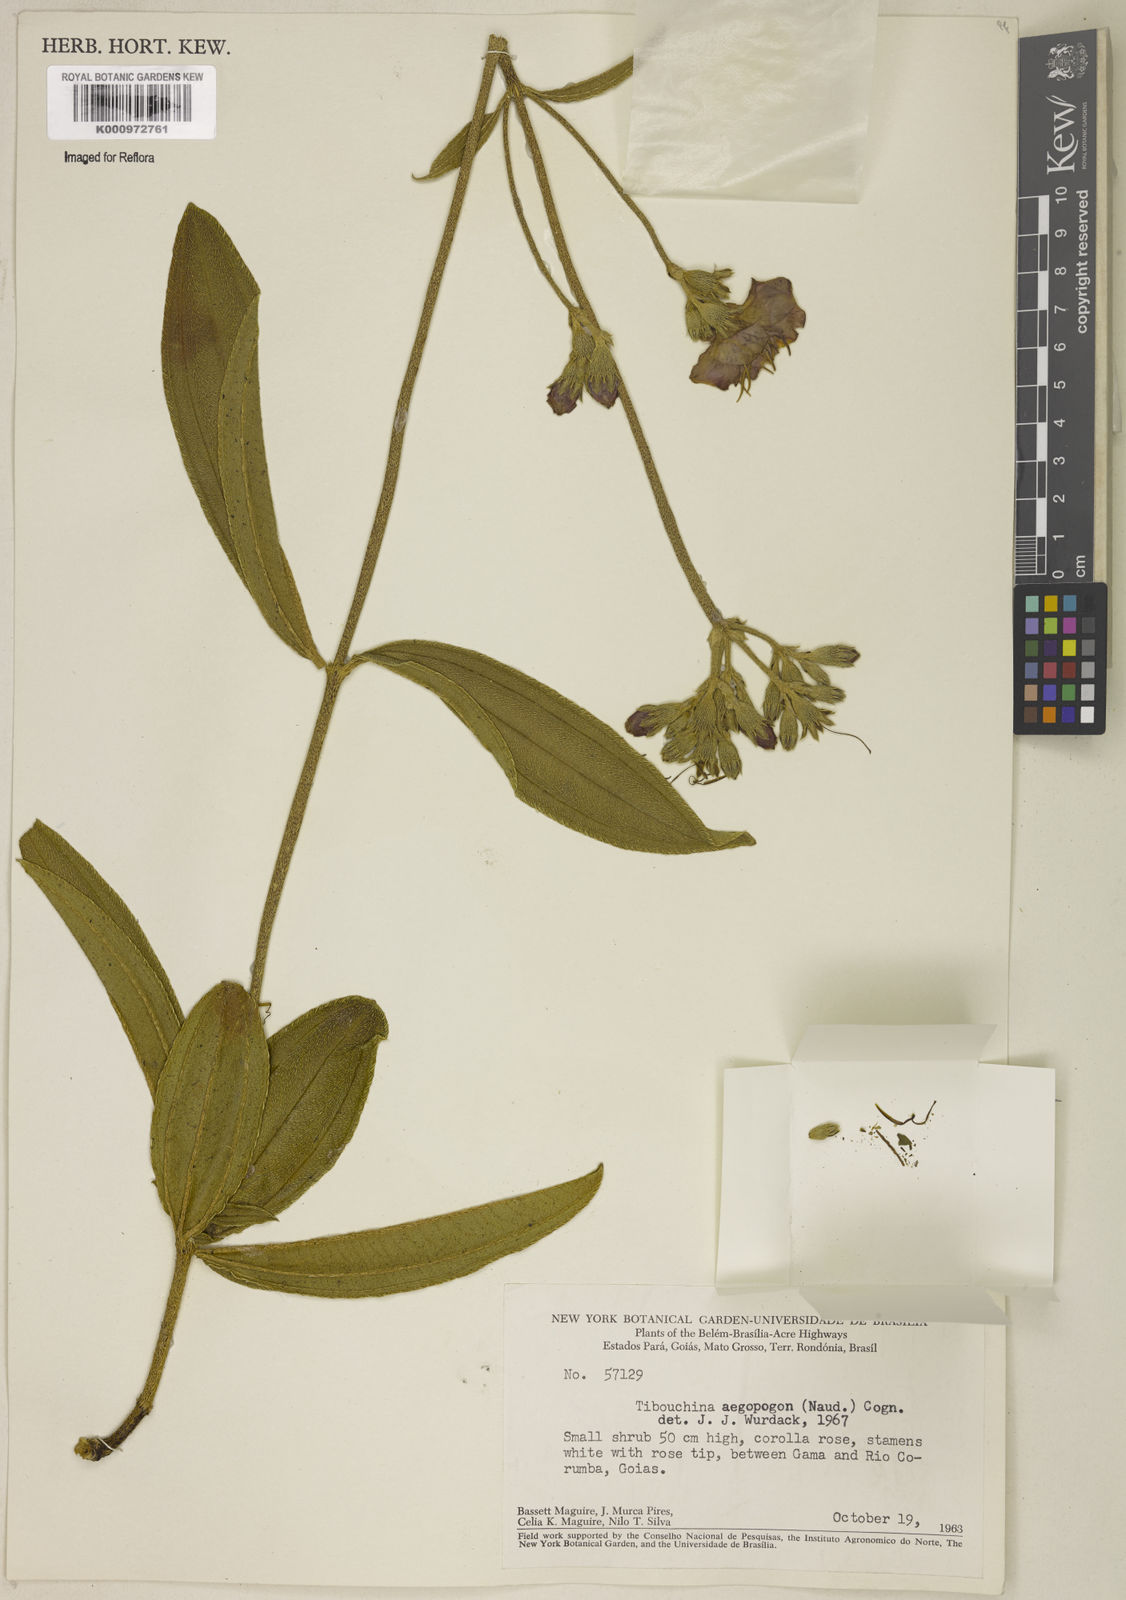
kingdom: Plantae
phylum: Tracheophyta
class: Magnoliopsida
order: Myrtales
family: Melastomataceae
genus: Pleroma
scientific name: Pleroma aegopogon
